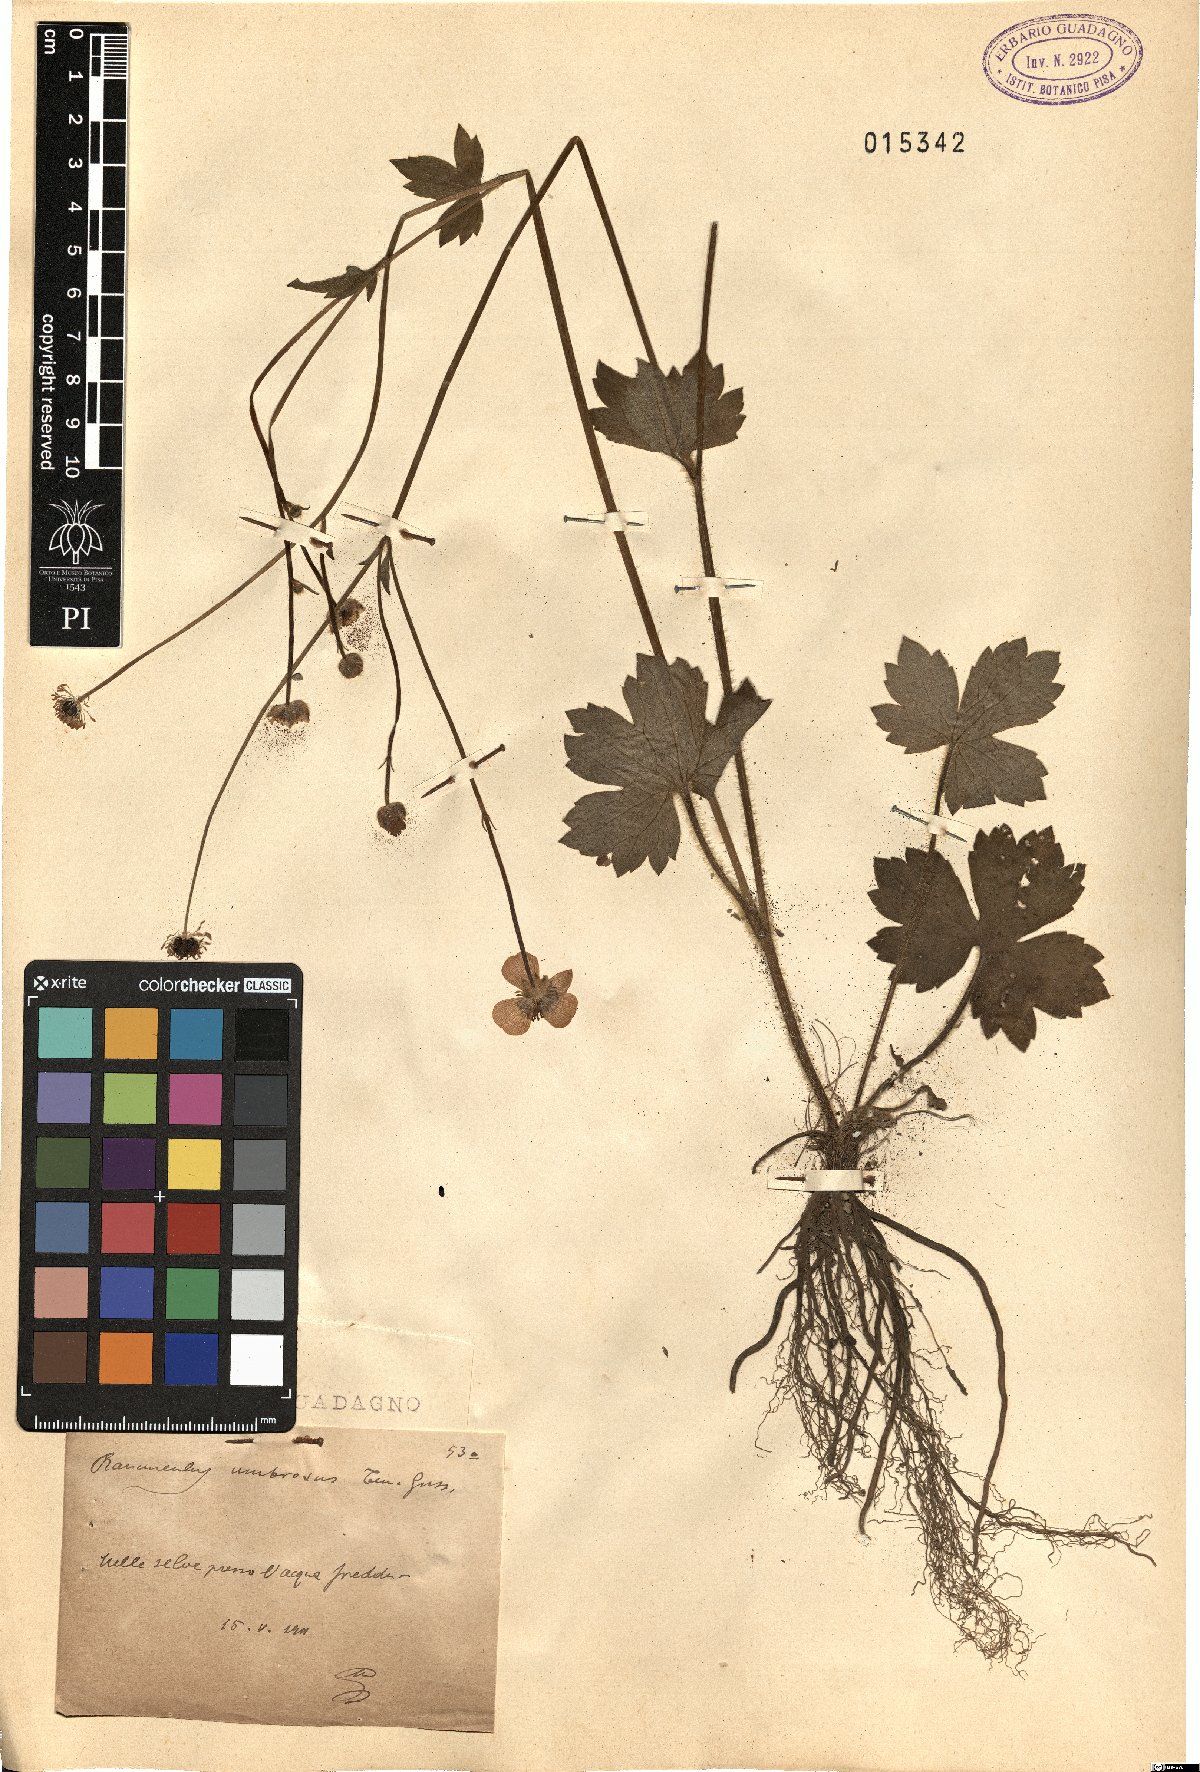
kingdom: Plantae
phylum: Tracheophyta
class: Magnoliopsida
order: Ranunculales
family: Ranunculaceae
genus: Ranunculus
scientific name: Ranunculus lanuginosus
